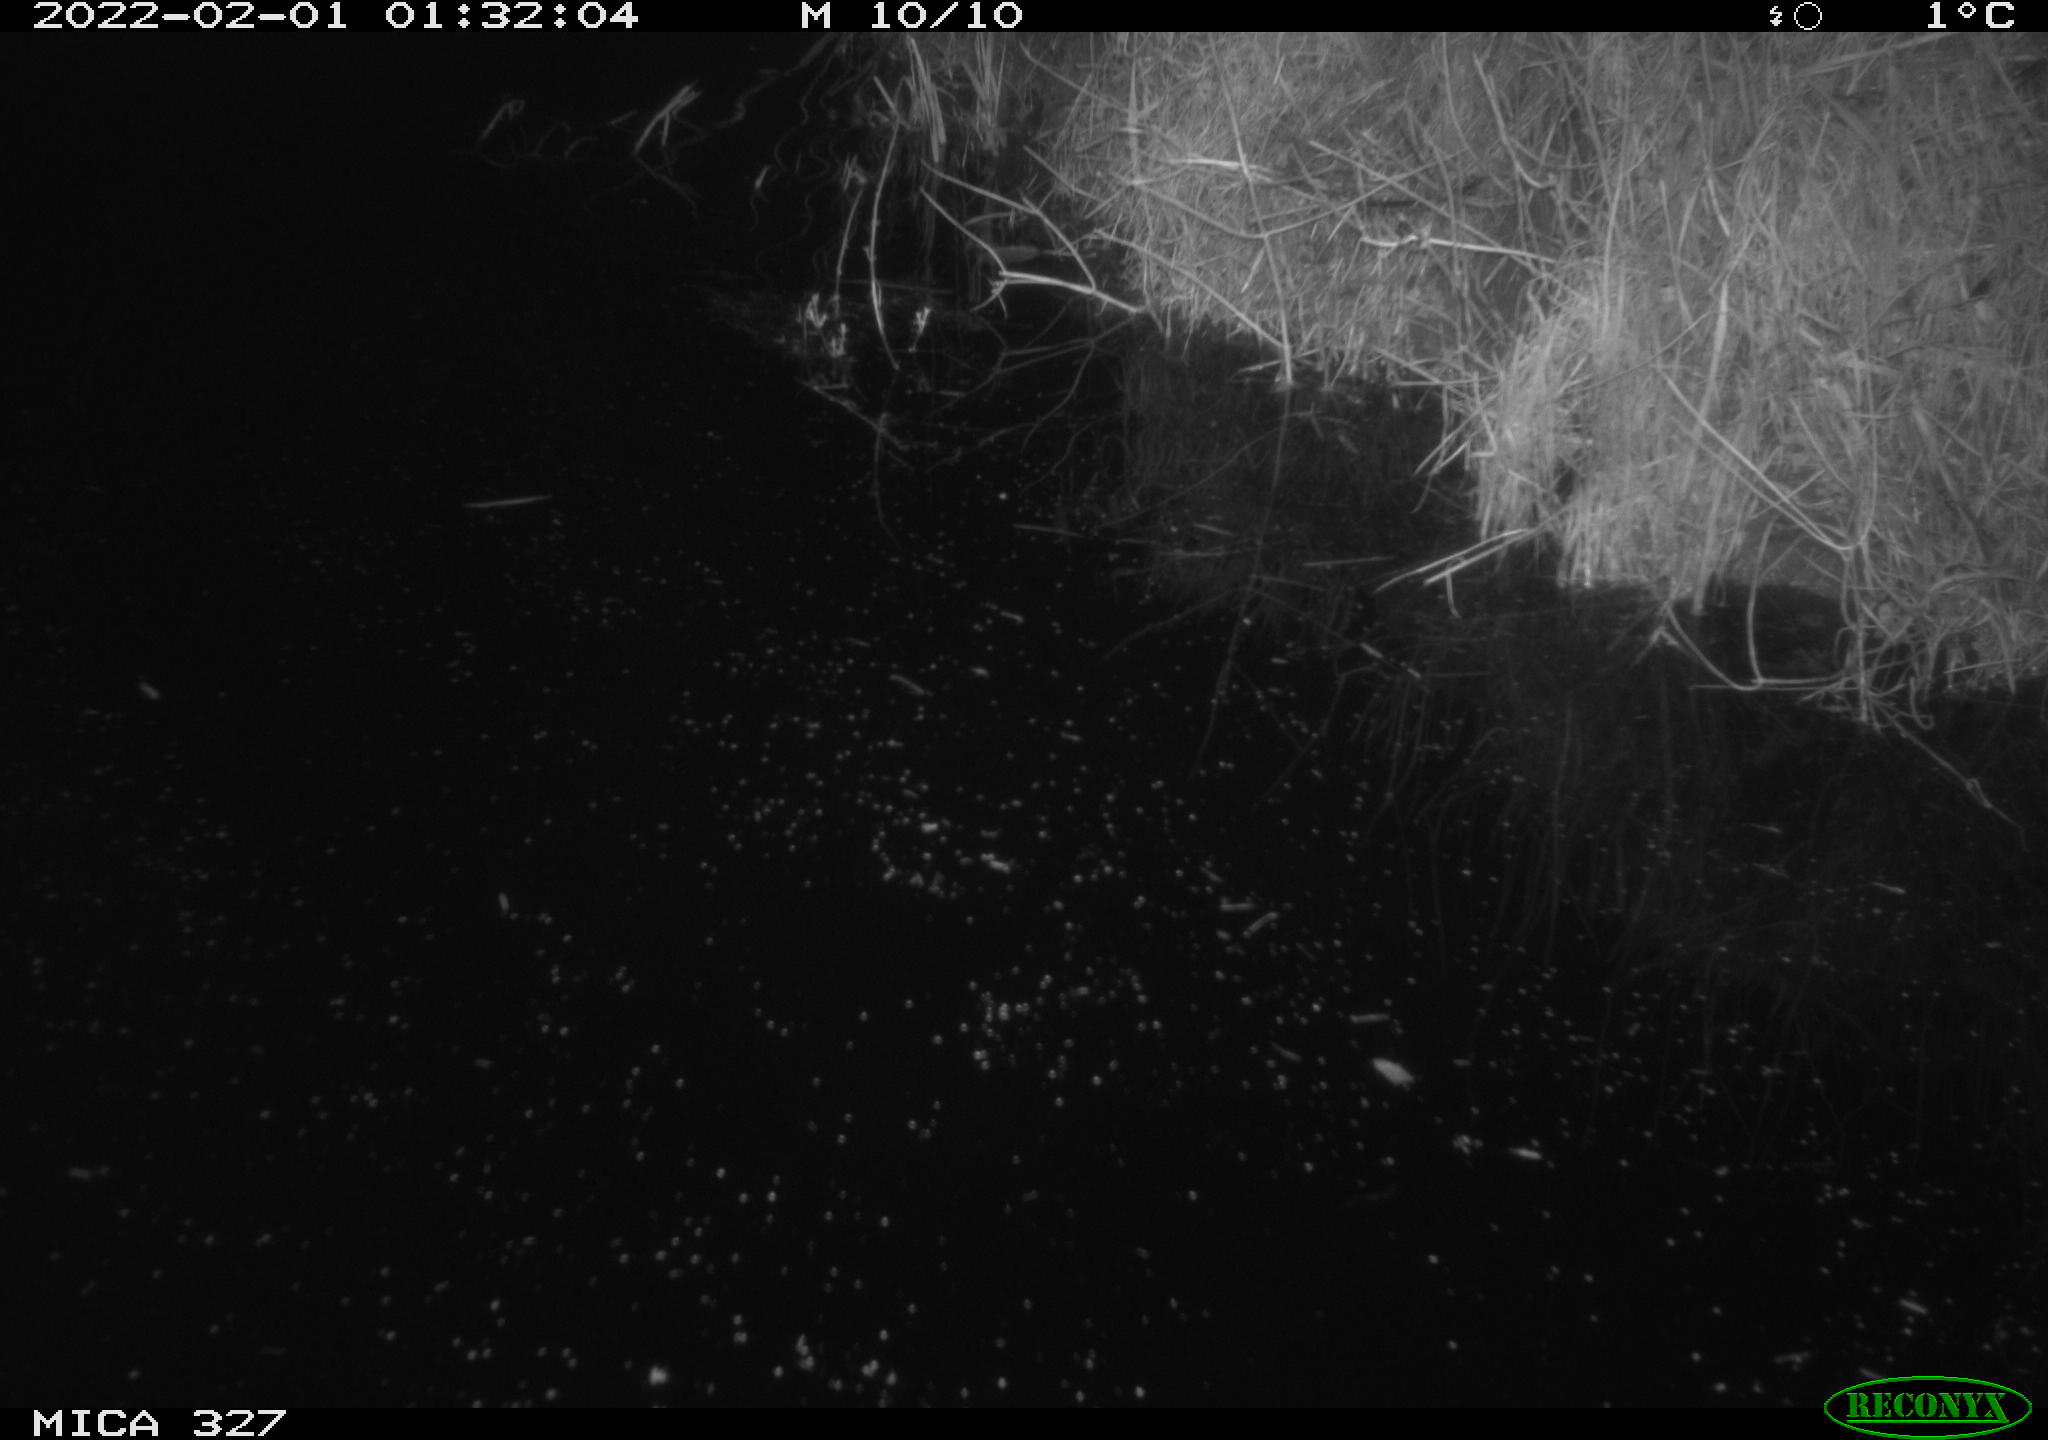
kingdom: Animalia
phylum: Chordata
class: Mammalia
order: Rodentia
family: Cricetidae
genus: Ondatra
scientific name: Ondatra zibethicus
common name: Muskrat
